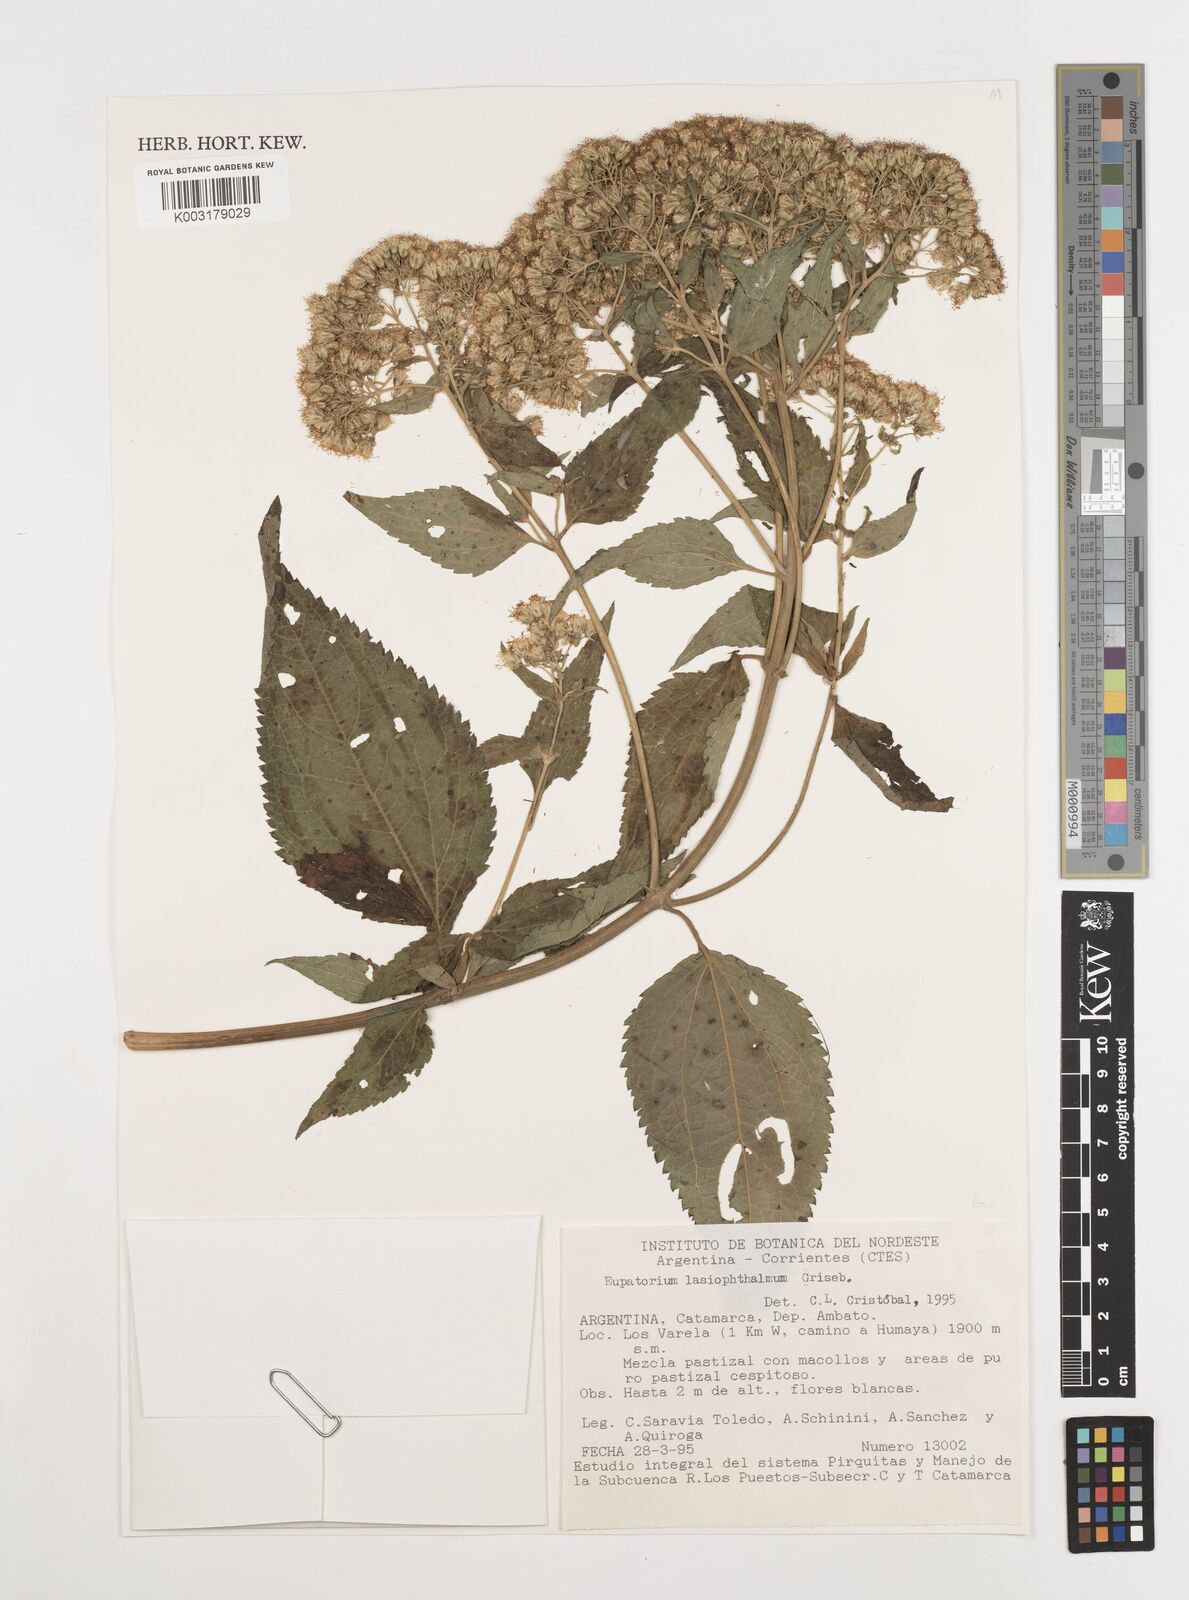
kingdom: Plantae
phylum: Tracheophyta
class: Magnoliopsida
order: Asterales
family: Asteraceae
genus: Kaunia
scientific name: Kaunia lasiophthalma
